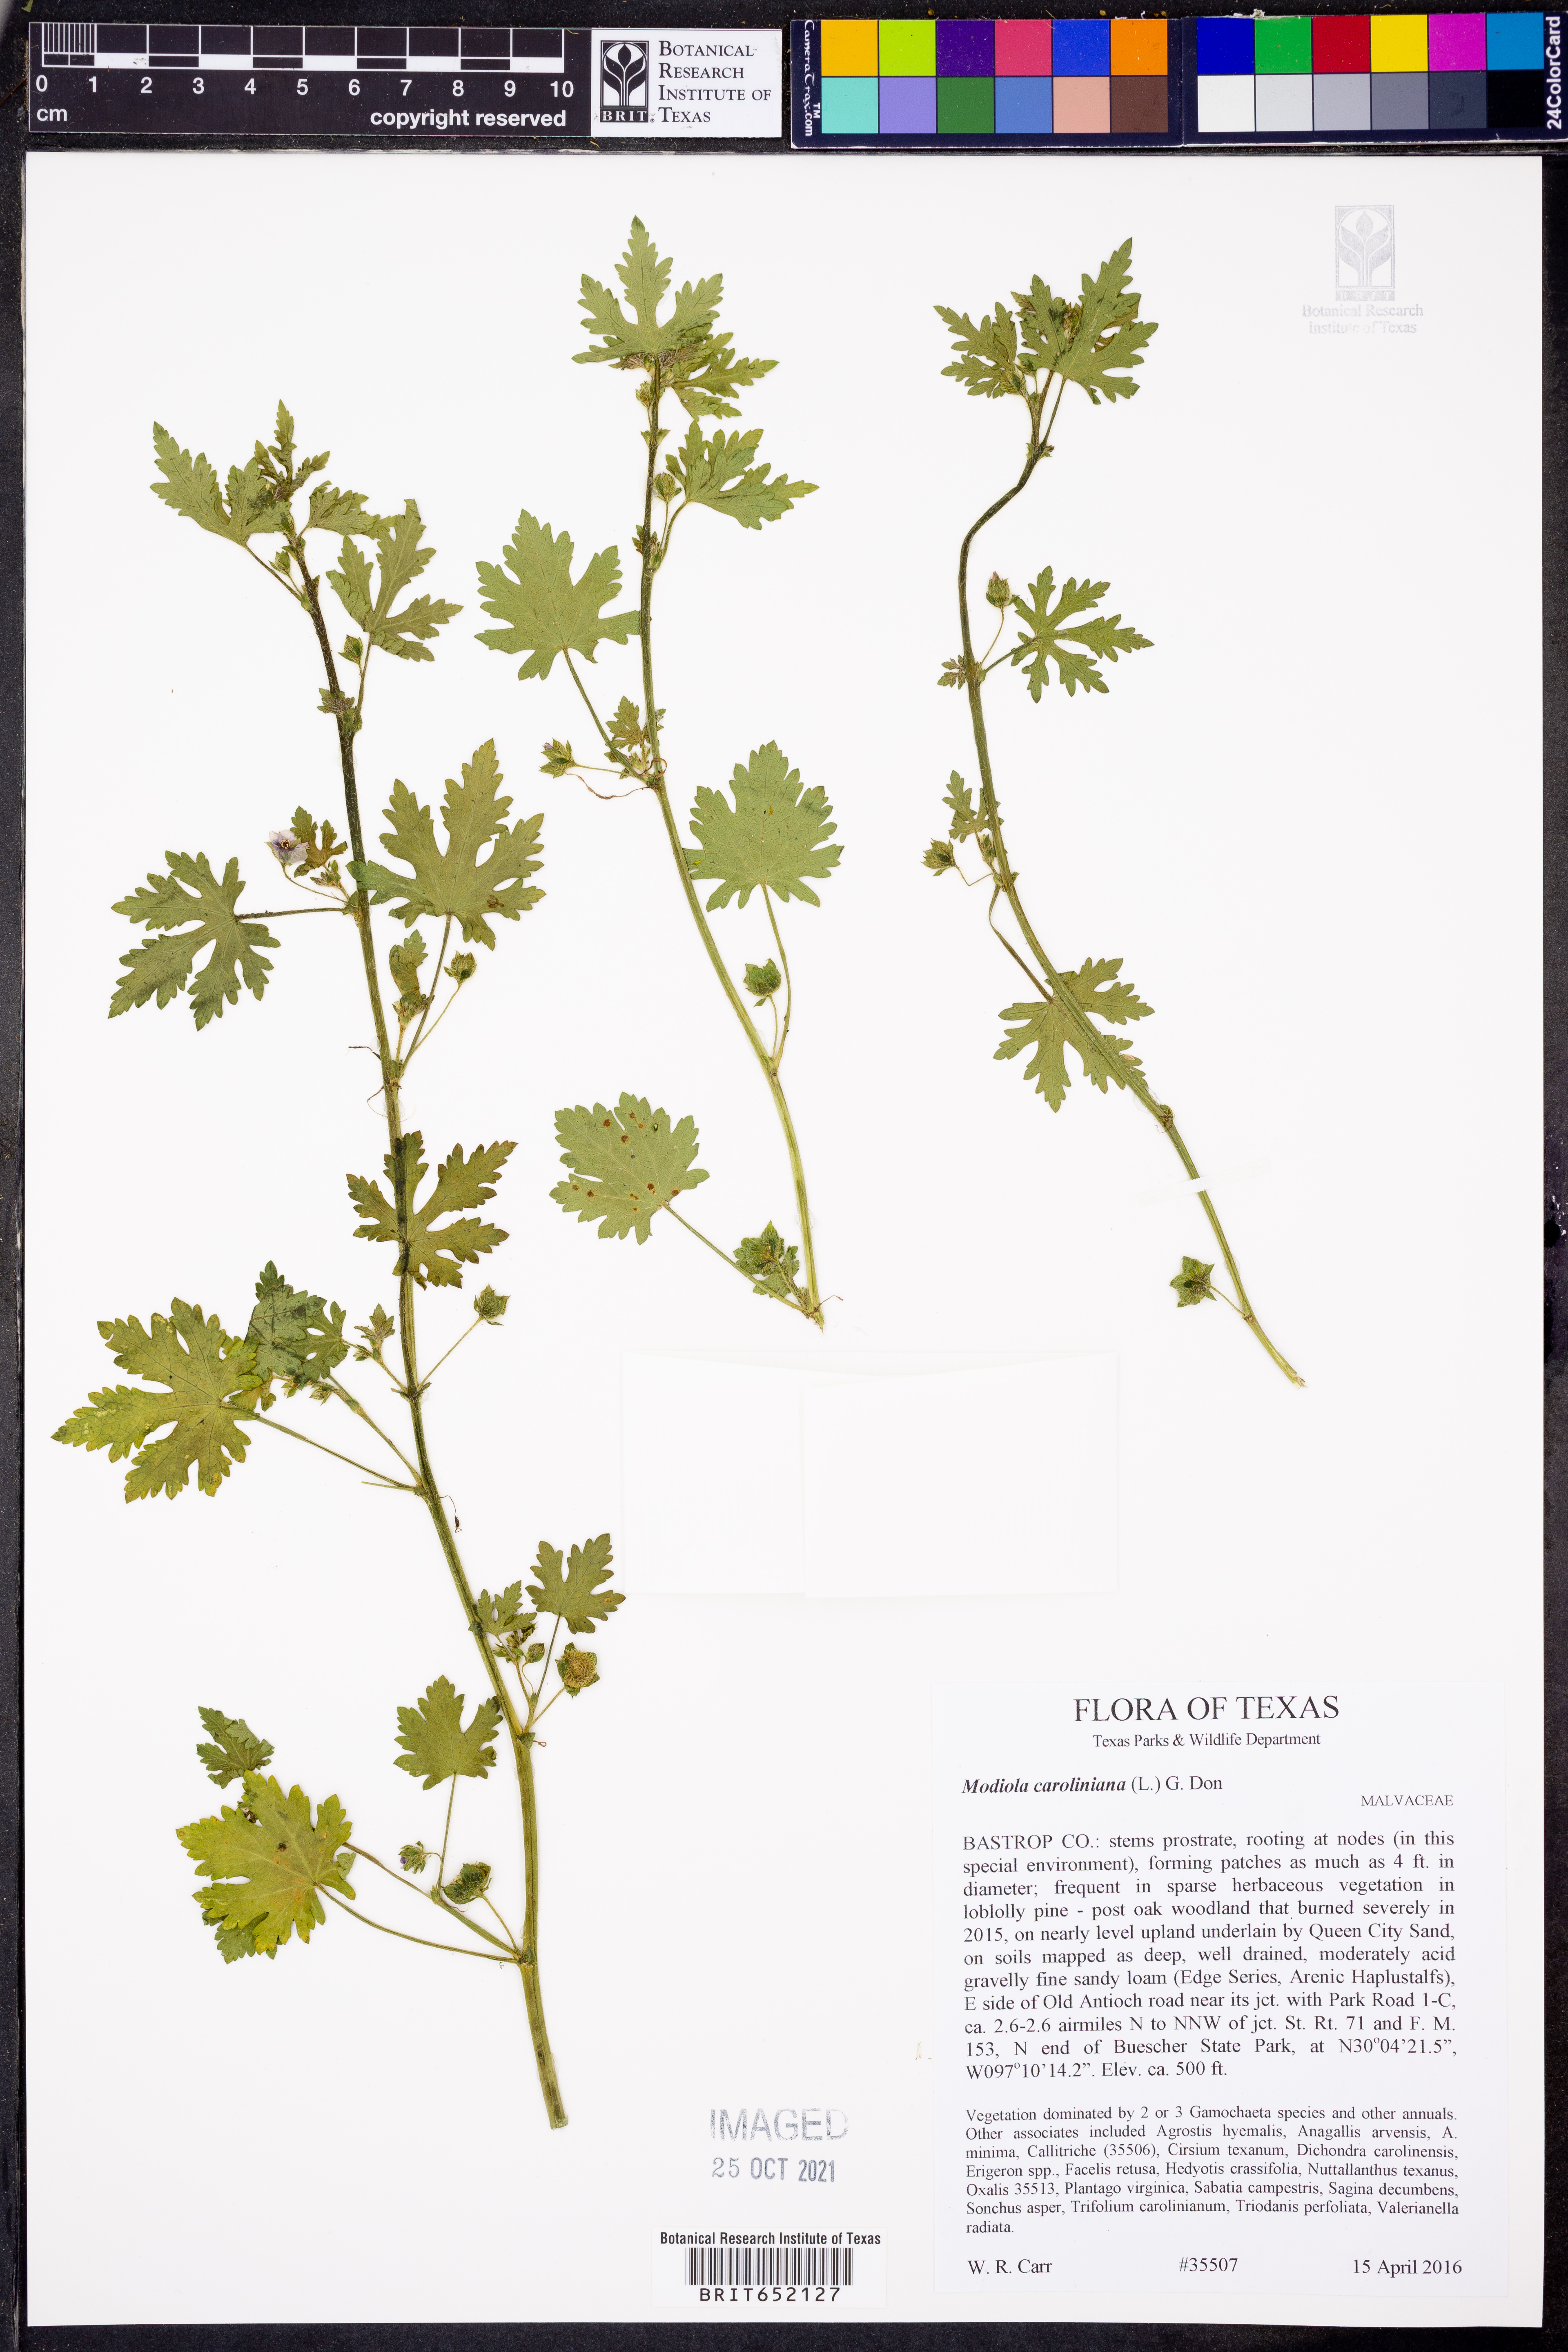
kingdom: Plantae
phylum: Tracheophyta
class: Magnoliopsida
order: Malvales
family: Malvaceae
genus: Modiola
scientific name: Modiola caroliniana
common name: Carolina bristlemallow
